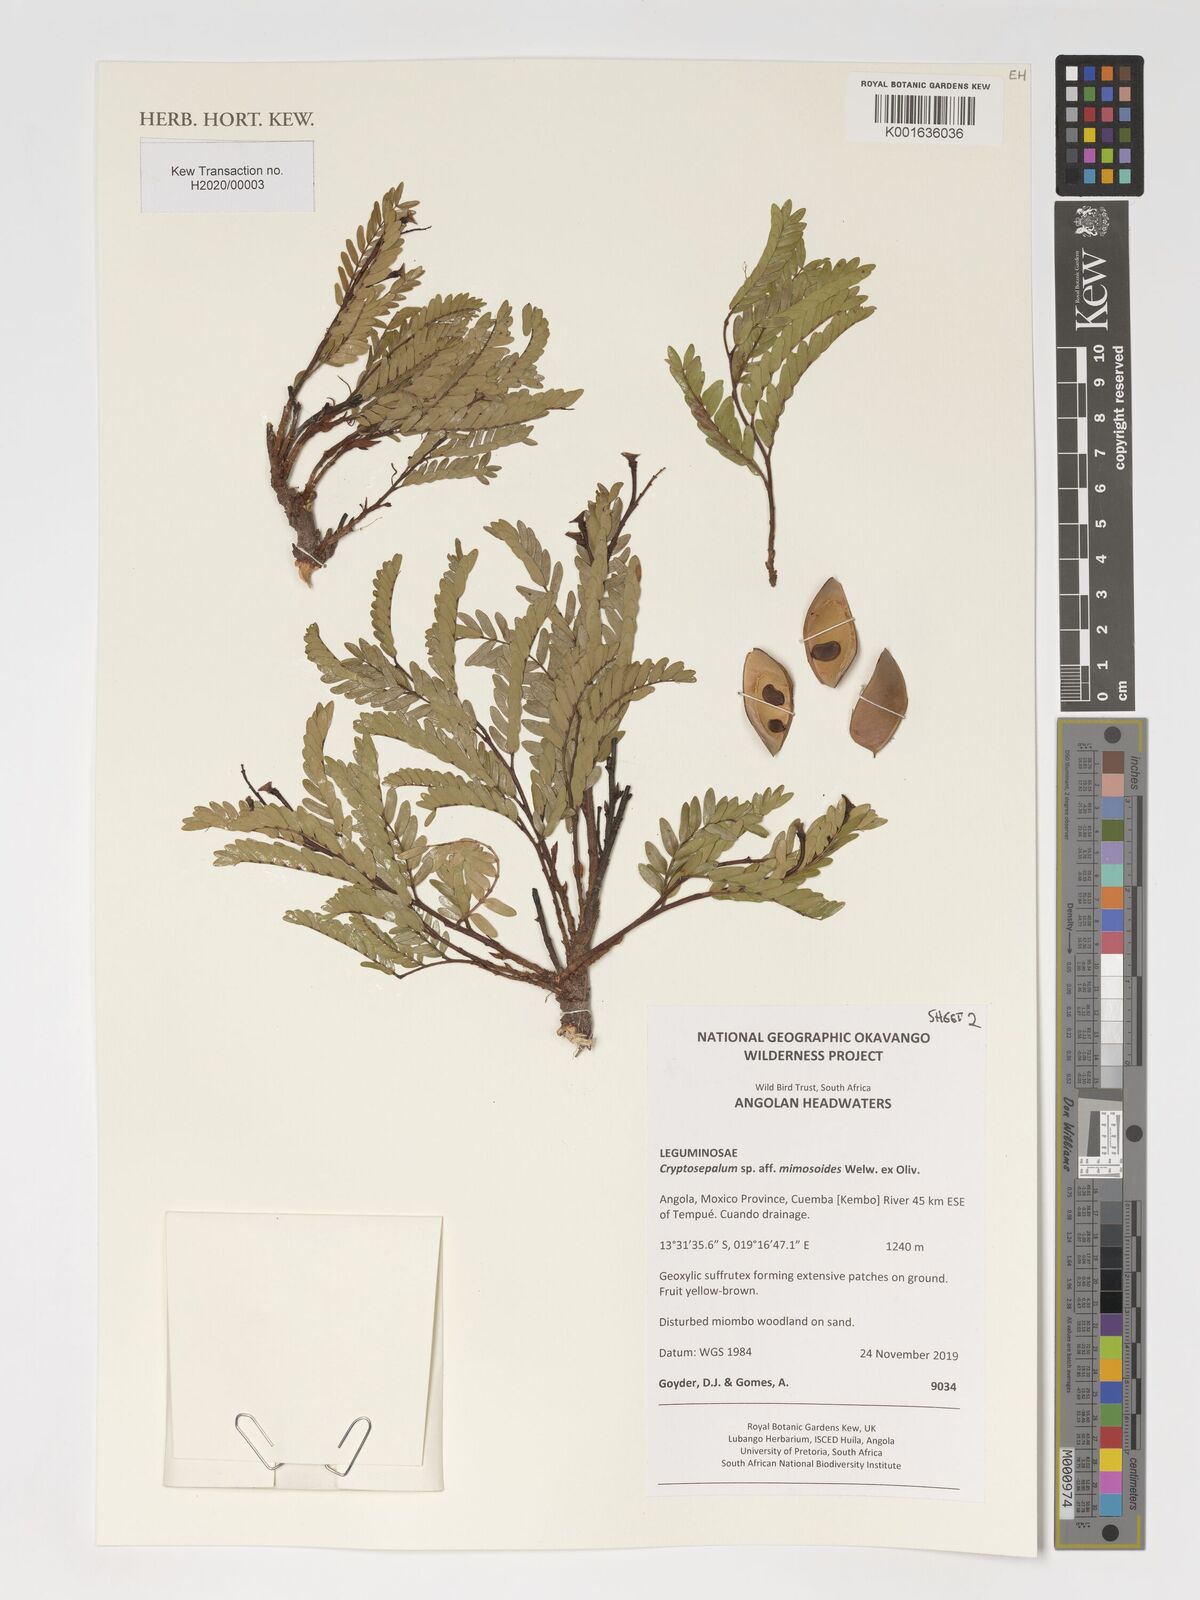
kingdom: Plantae
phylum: Tracheophyta
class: Magnoliopsida
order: Fabales
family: Fabaceae
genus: Cryptosepalum
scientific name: Cryptosepalum mimosoides
